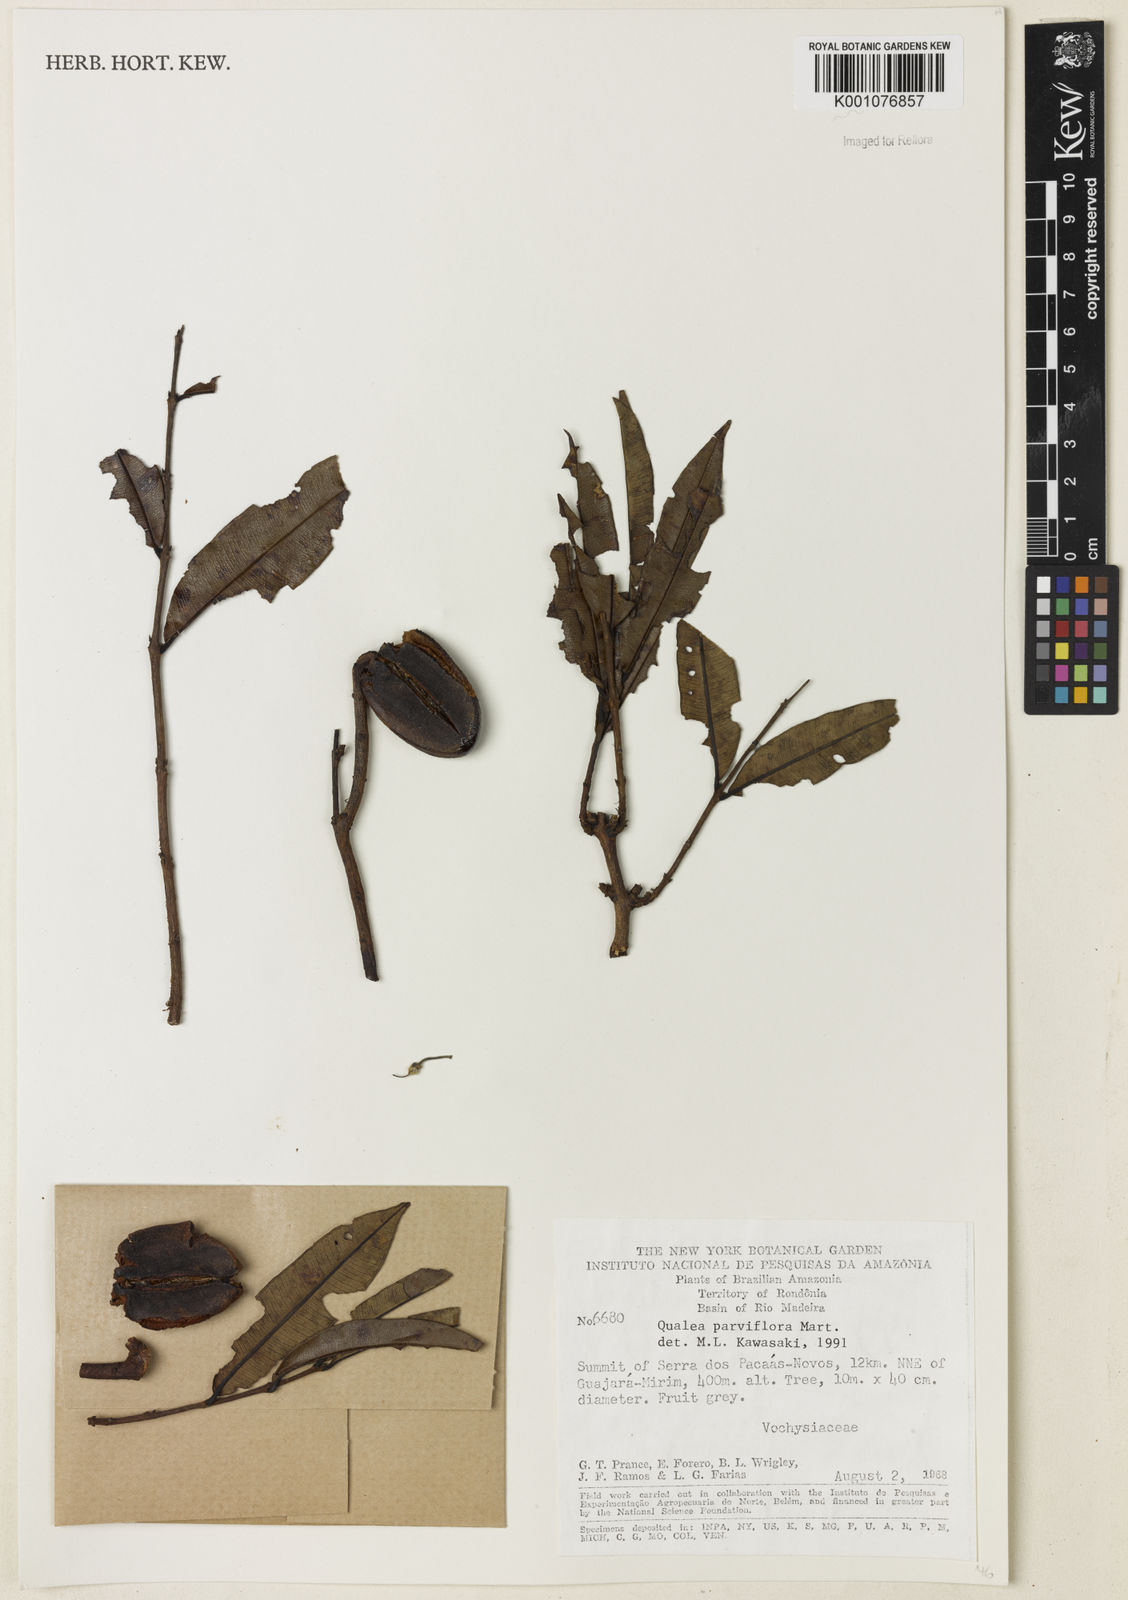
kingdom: Plantae
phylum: Tracheophyta
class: Magnoliopsida
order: Myrtales
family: Vochysiaceae
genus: Qualea
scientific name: Qualea parviflora
